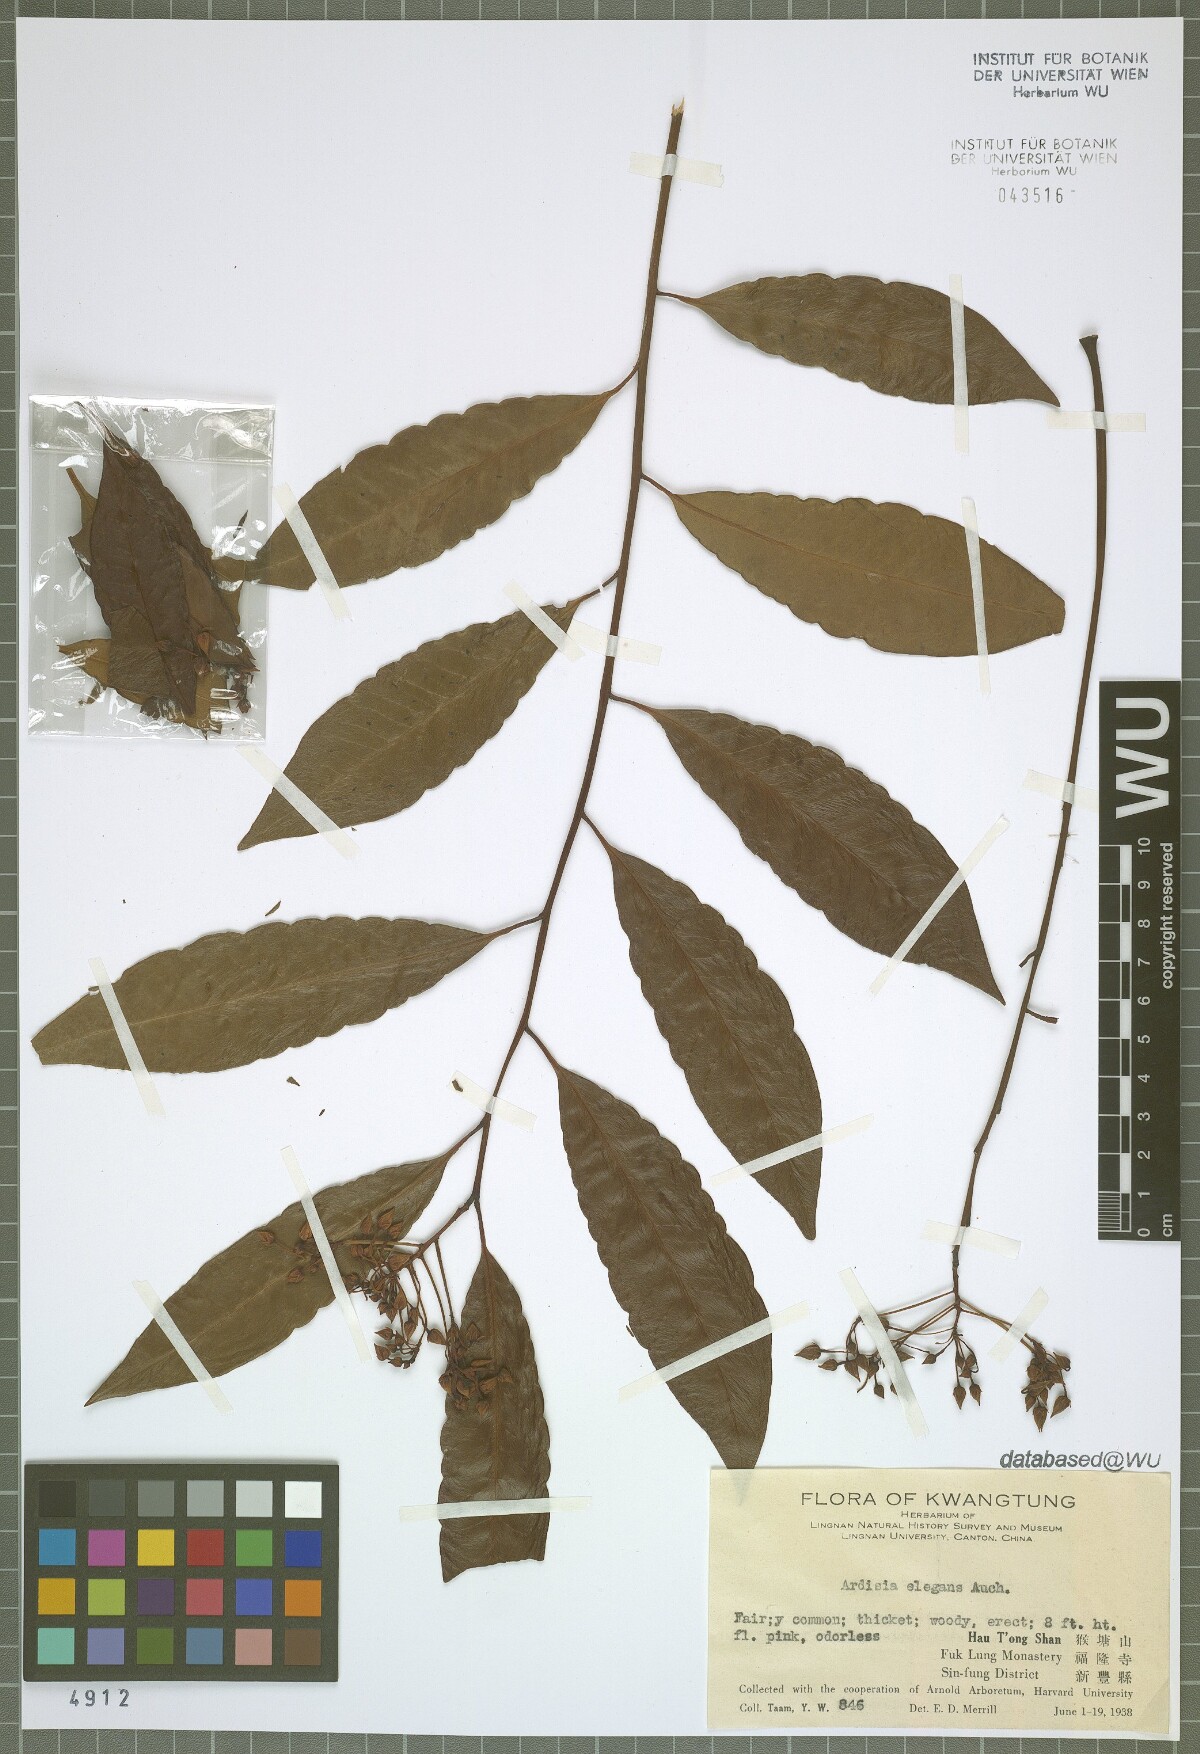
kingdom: Plantae
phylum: Tracheophyta
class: Magnoliopsida
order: Ericales
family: Primulaceae
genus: Ardisia
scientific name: Ardisia crenata
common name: Hen's eyes
